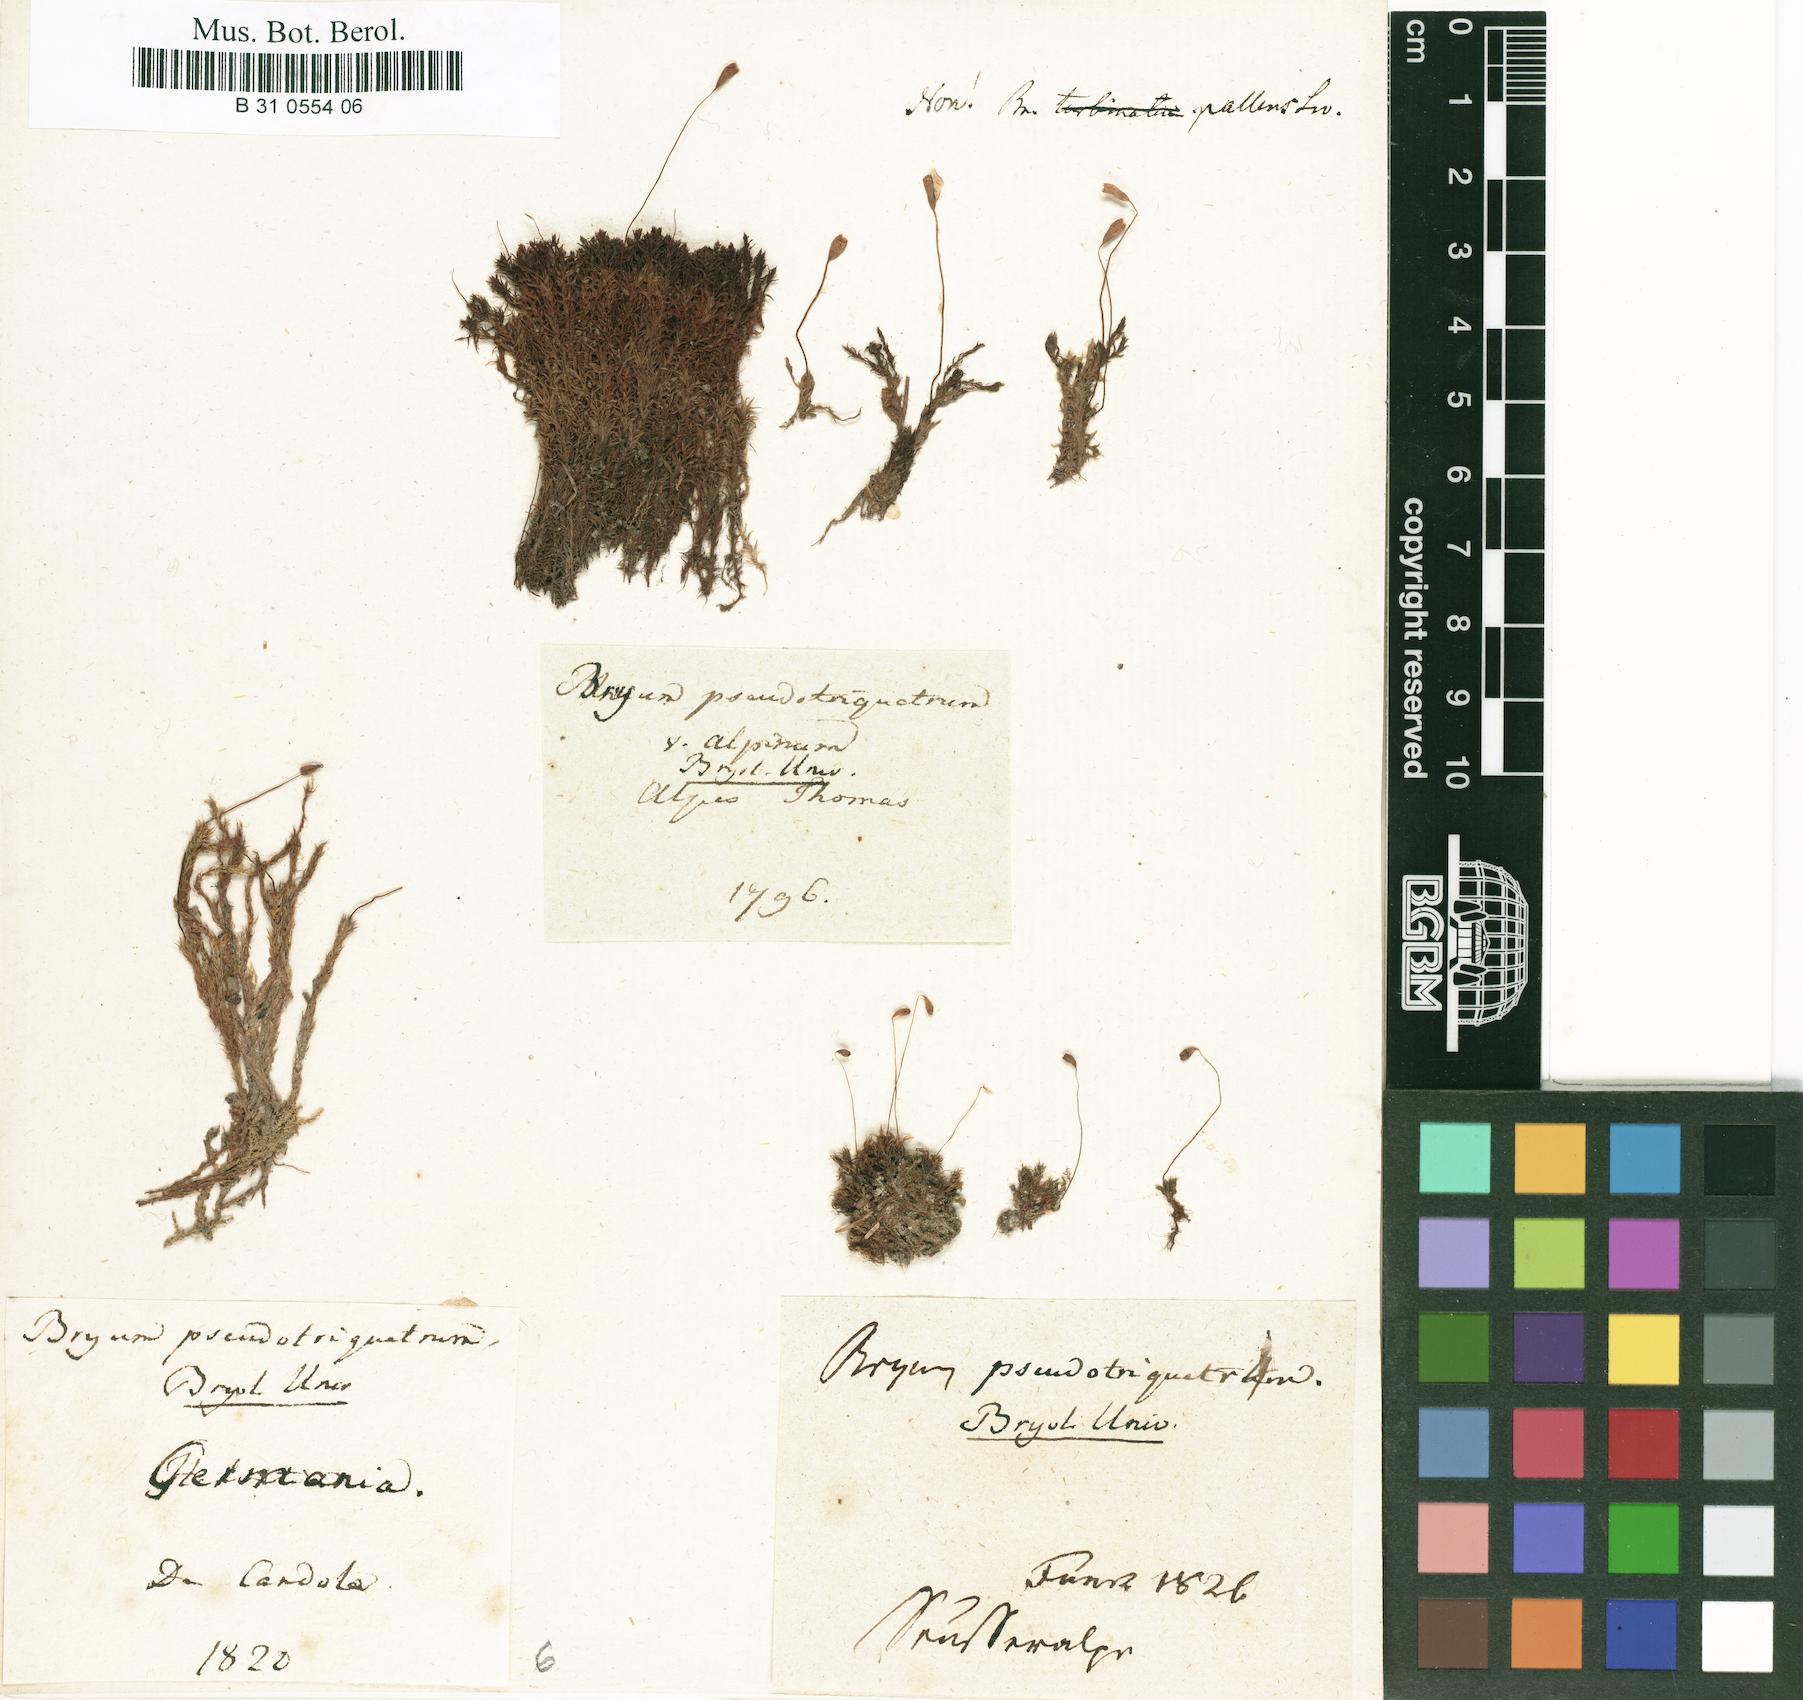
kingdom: Plantae
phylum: Bryophyta
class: Bryopsida
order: Bryales
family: Bryaceae
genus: Ptychostomum
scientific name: Ptychostomum pseudotriquetrum
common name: Long-leaved thread moss
